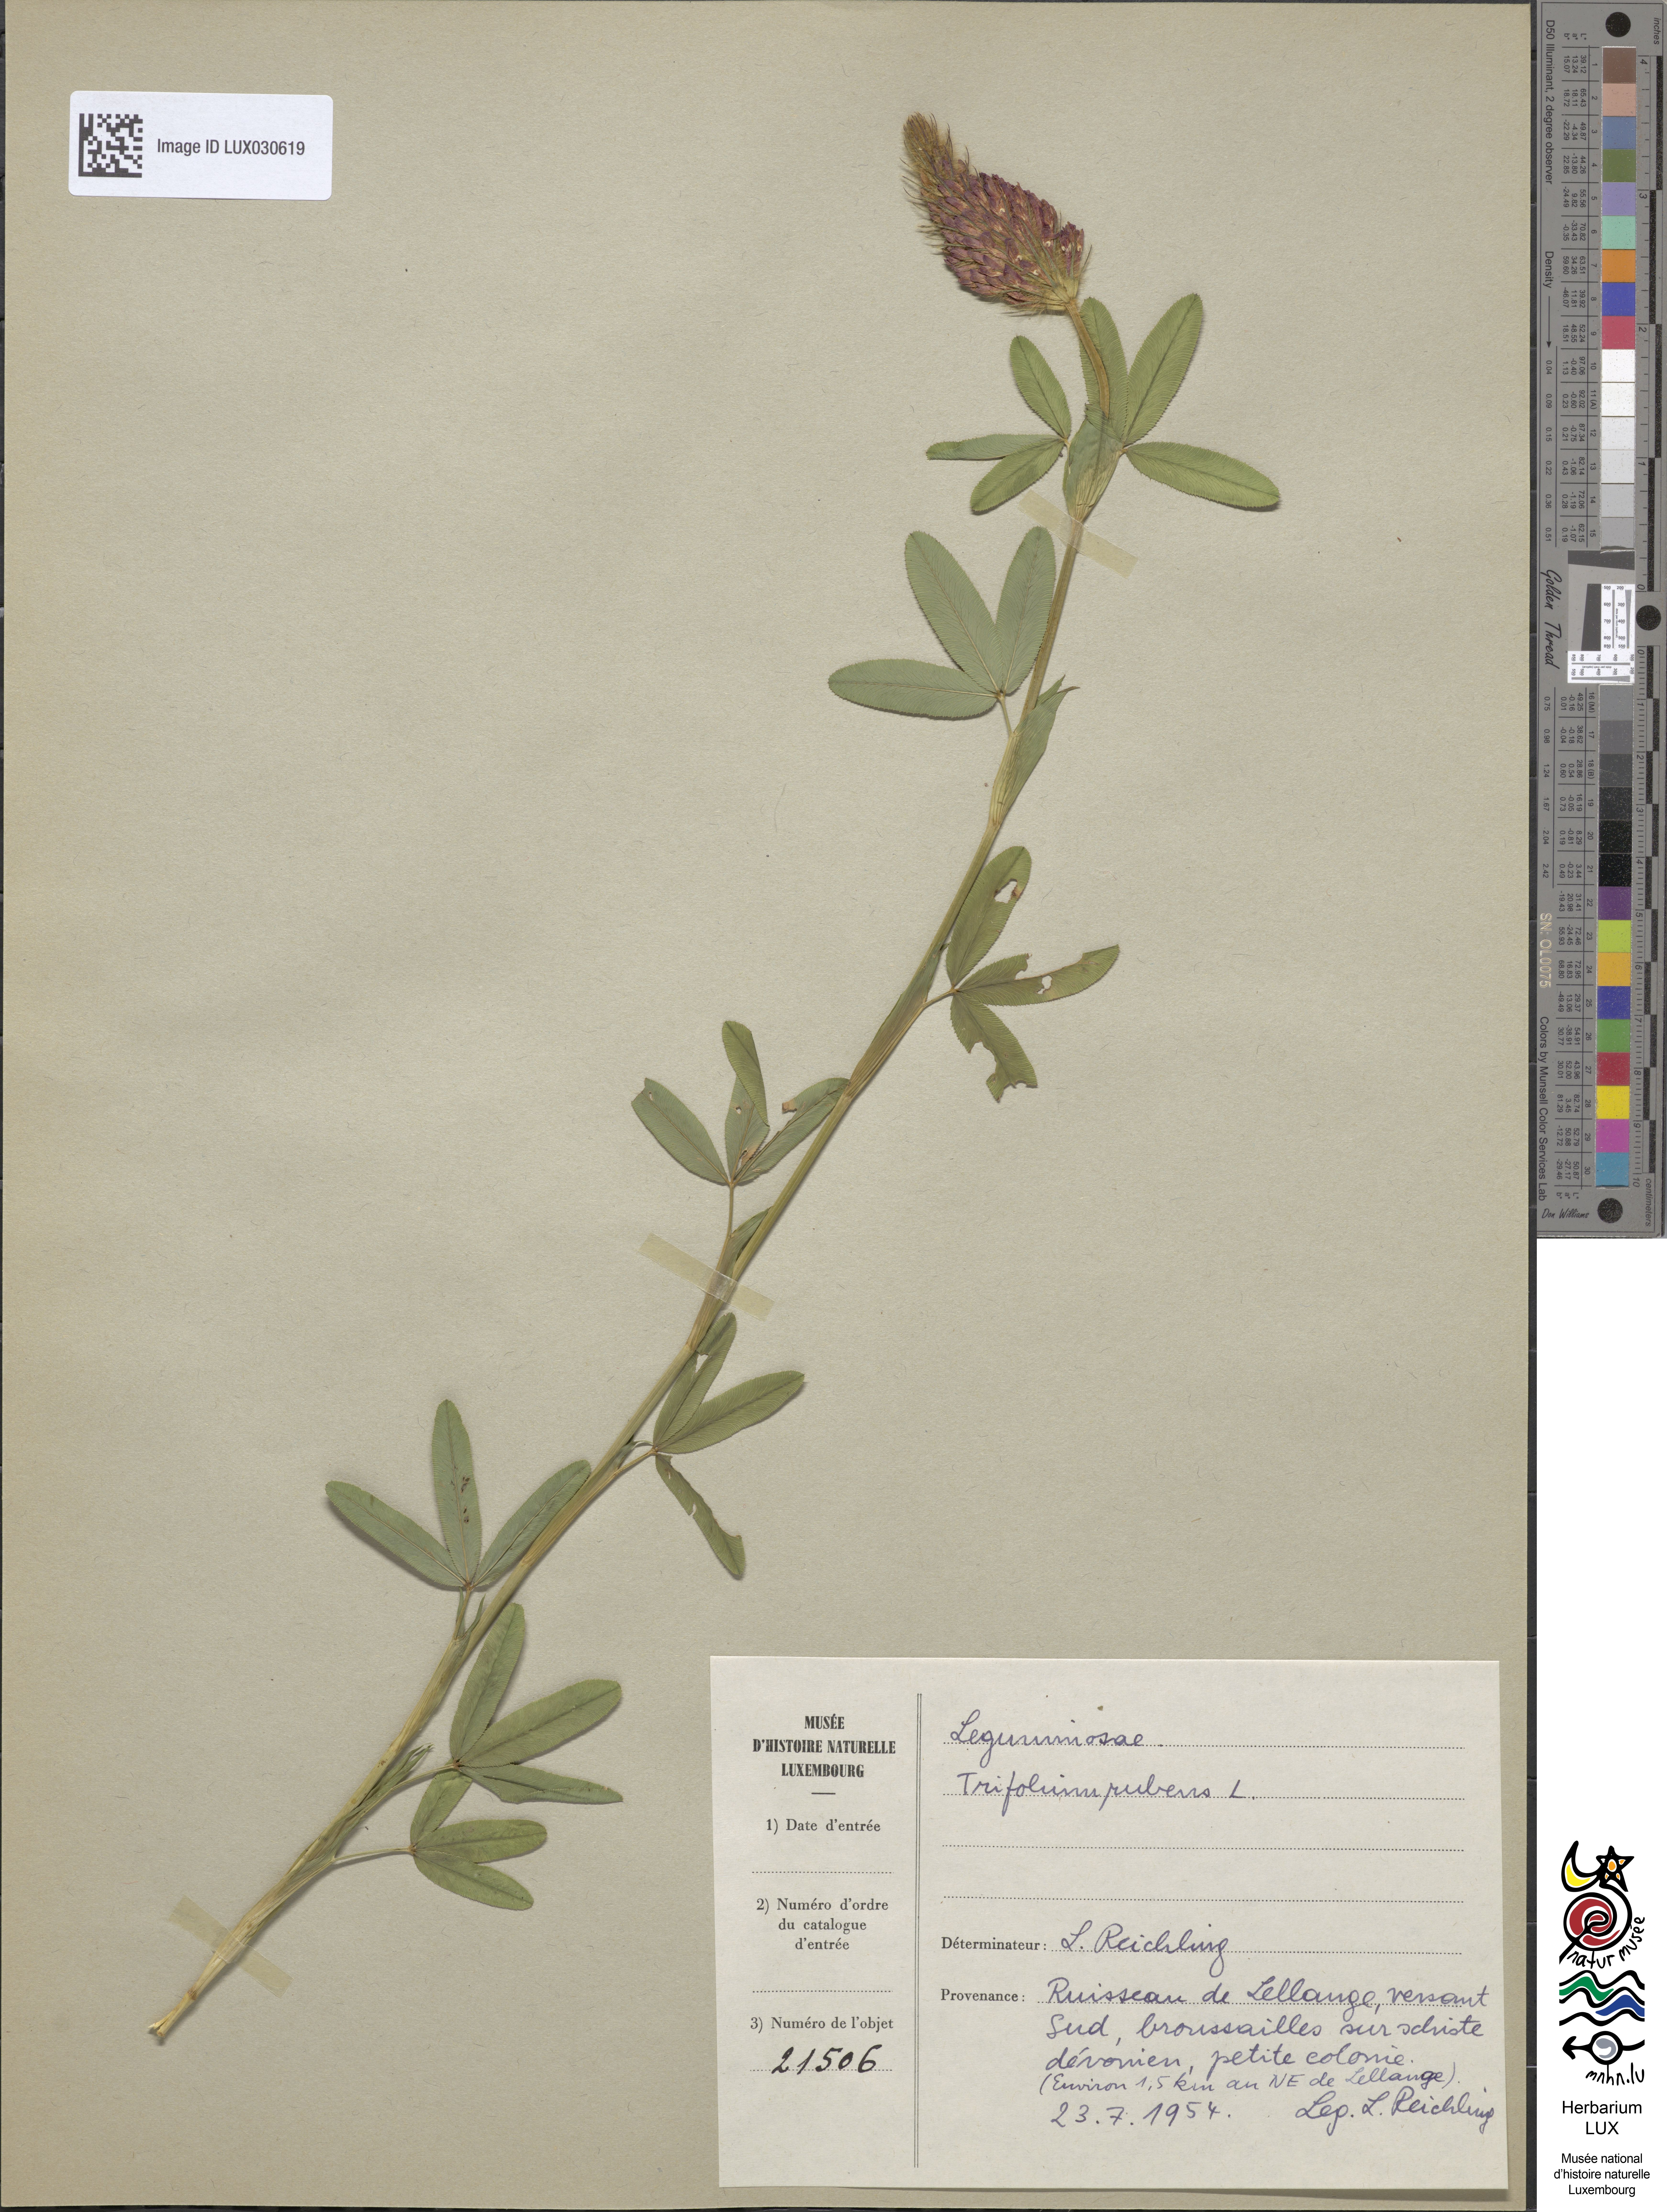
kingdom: Plantae
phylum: Tracheophyta
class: Magnoliopsida
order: Fabales
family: Fabaceae
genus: Trifolium
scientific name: Trifolium rubens
